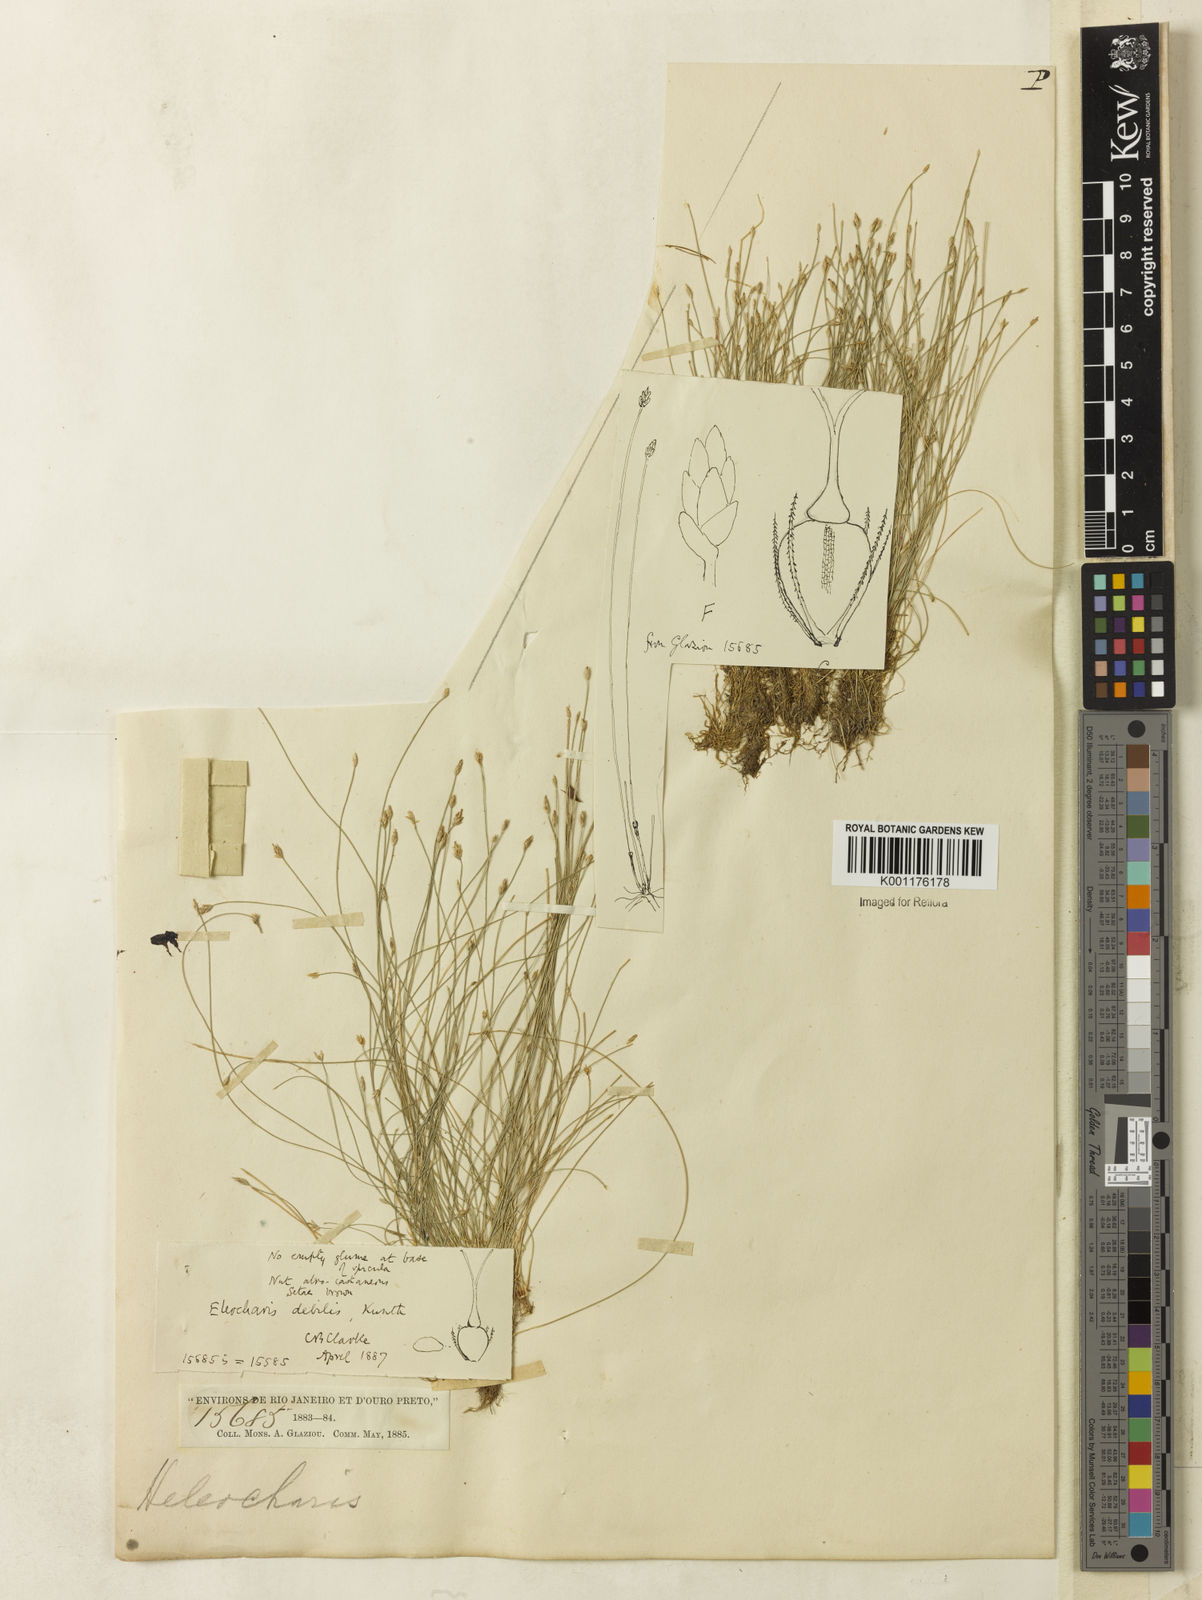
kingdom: Plantae
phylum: Tracheophyta
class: Liliopsida
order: Poales
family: Cyperaceae
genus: Eleocharis
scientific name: Eleocharis maculosa
